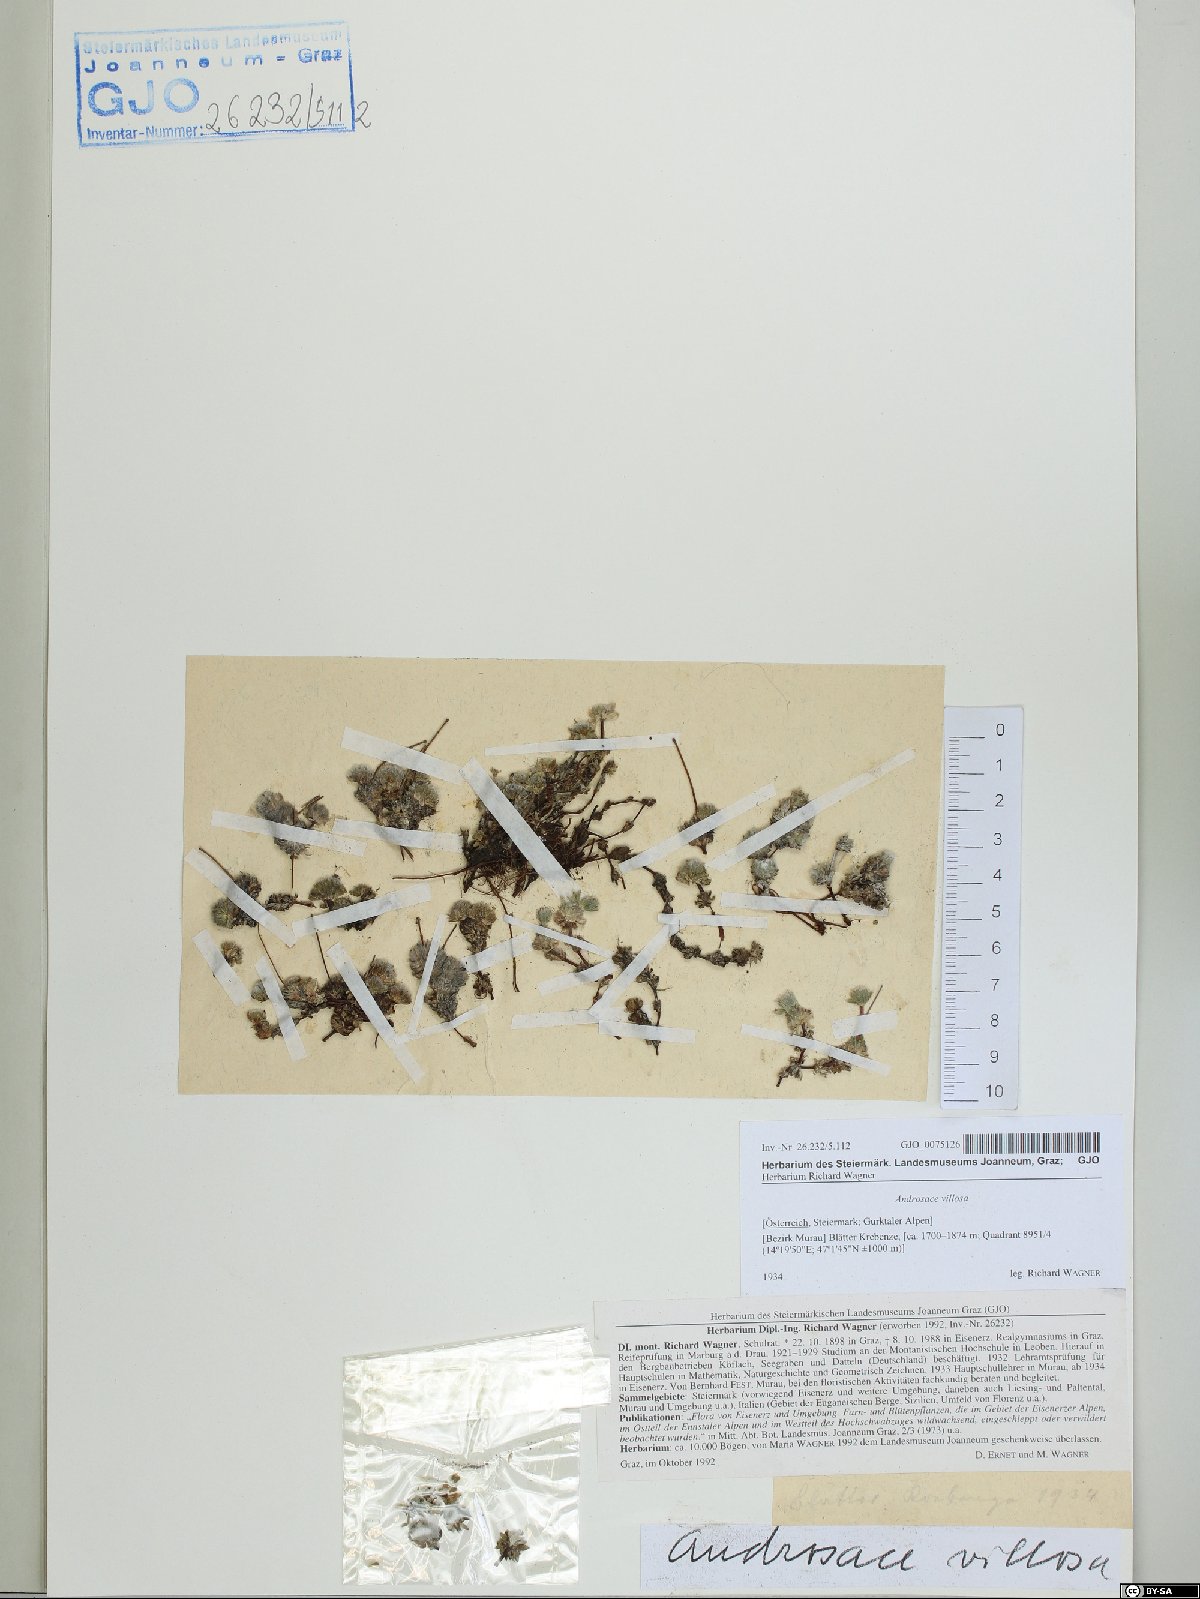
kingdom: Plantae
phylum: Tracheophyta
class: Magnoliopsida
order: Ericales
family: Primulaceae
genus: Androsace
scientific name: Androsace villosa
